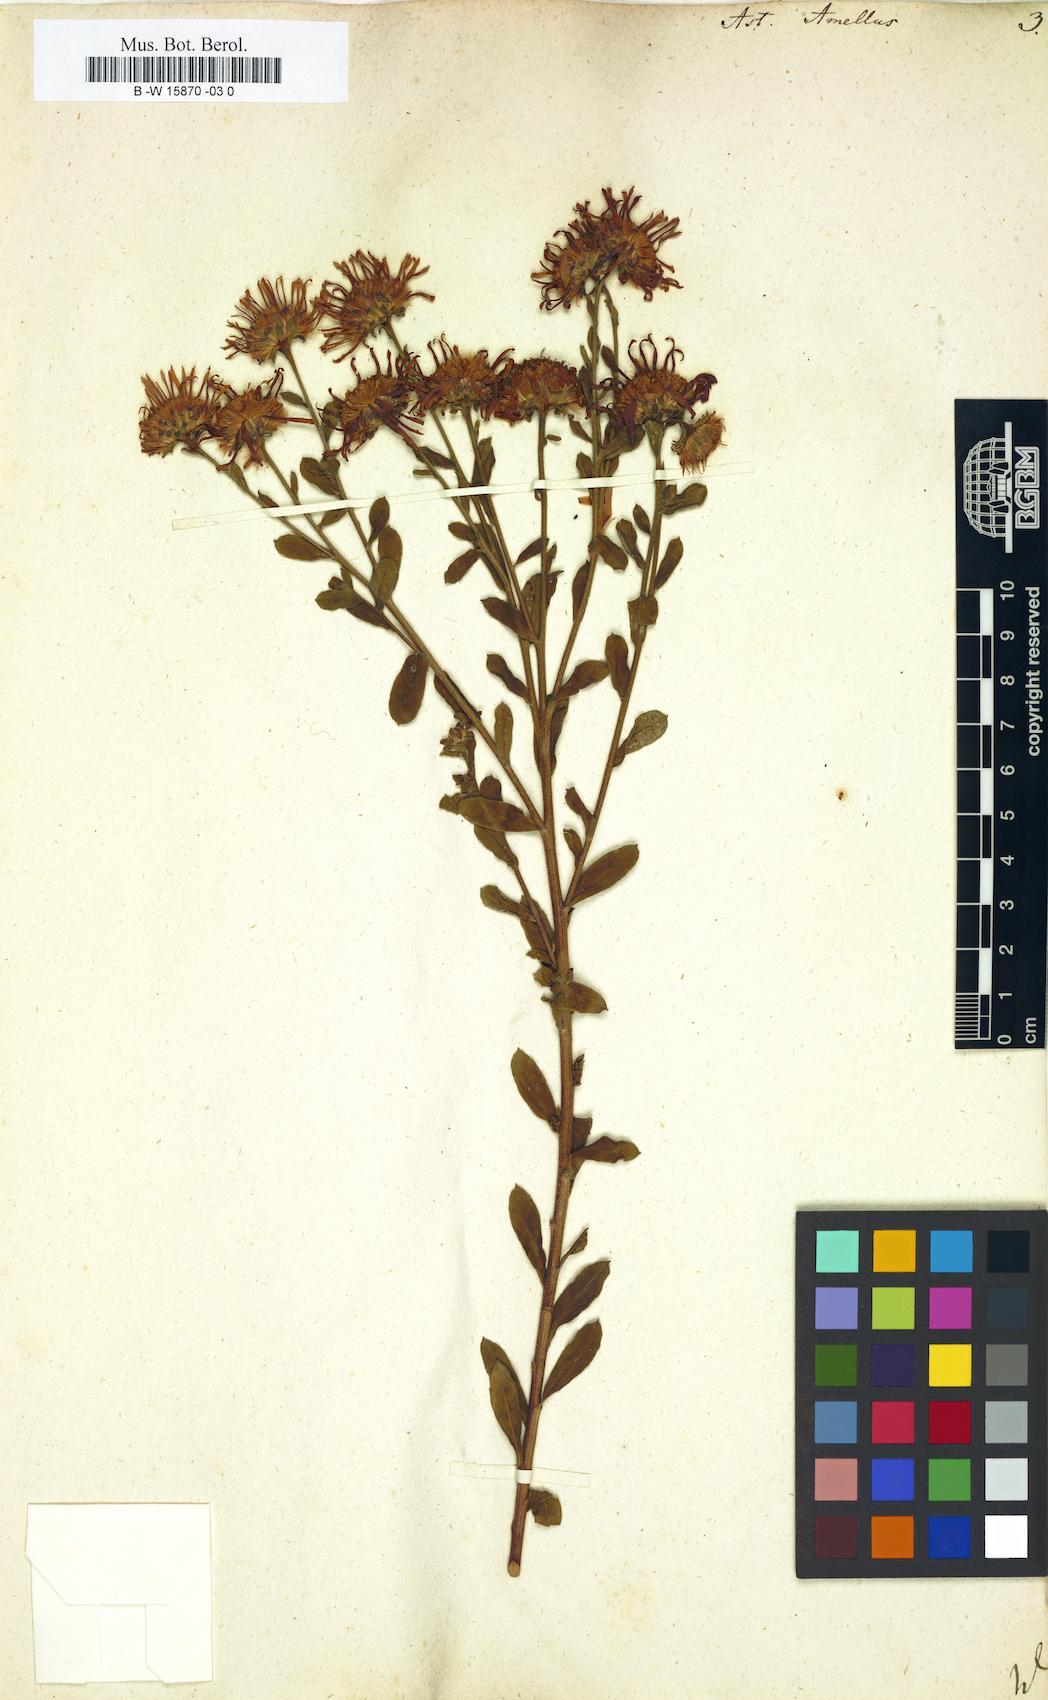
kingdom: Plantae
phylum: Tracheophyta
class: Magnoliopsida
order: Asterales
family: Asteraceae
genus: Aster
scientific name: Aster amellus
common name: European michaelmas daisy
